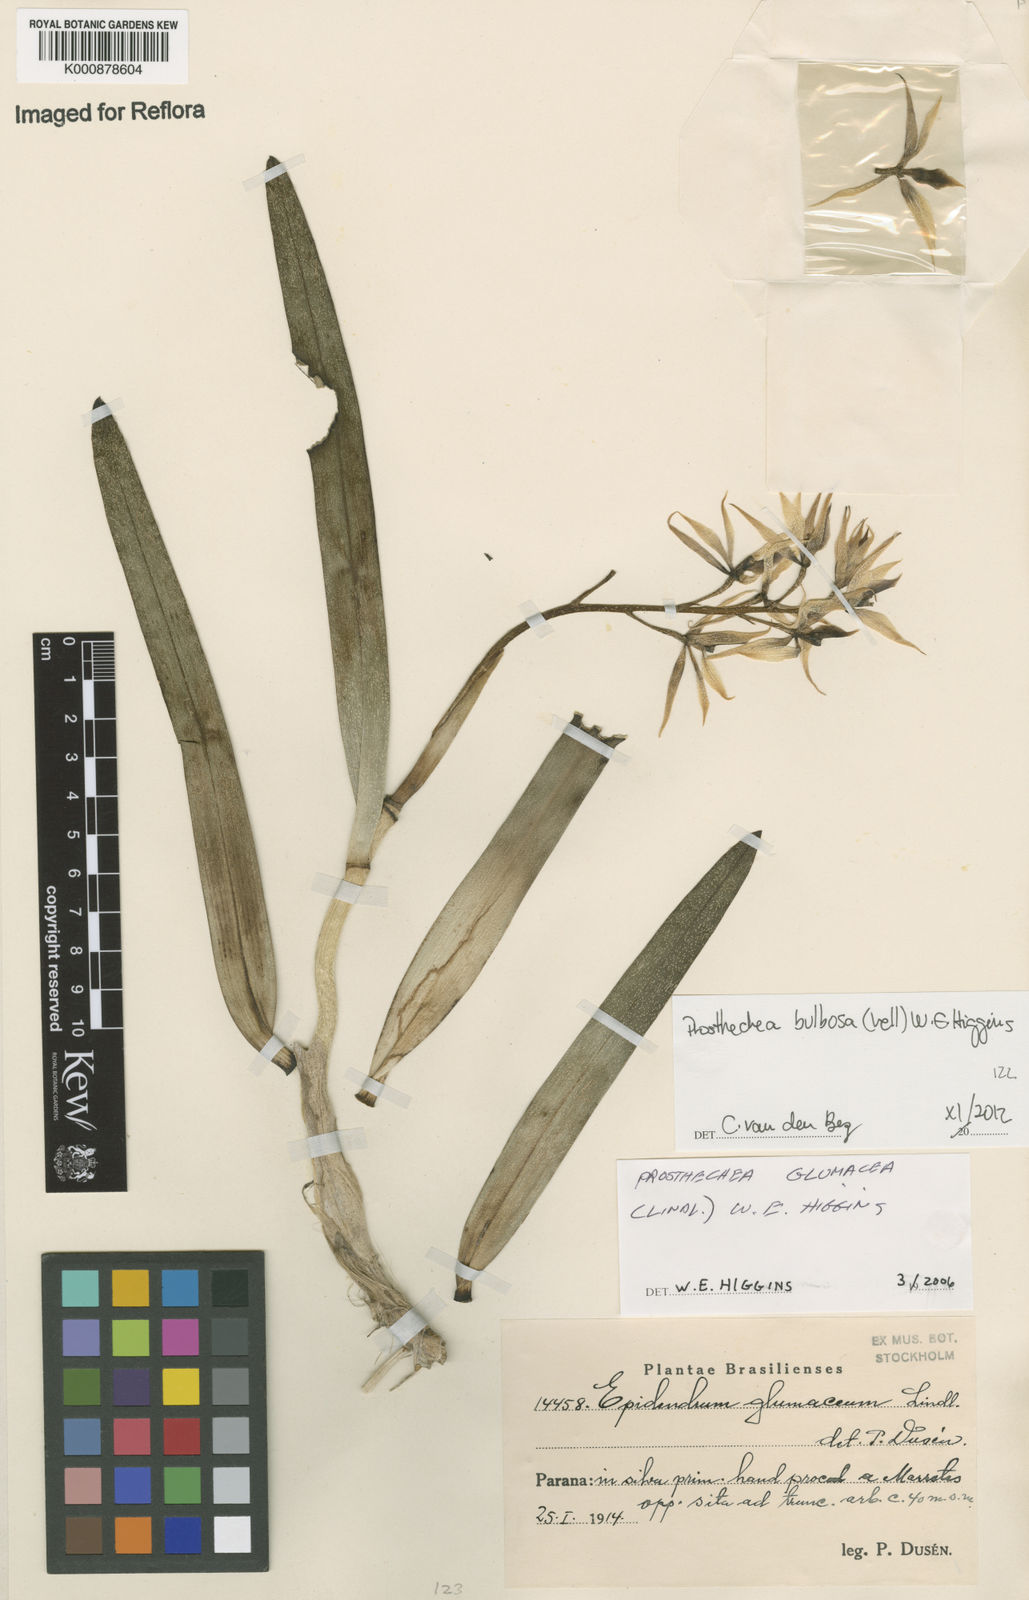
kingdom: Plantae
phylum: Tracheophyta
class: Liliopsida
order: Asparagales
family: Orchidaceae
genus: Prosthechea
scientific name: Prosthechea bulbosa
